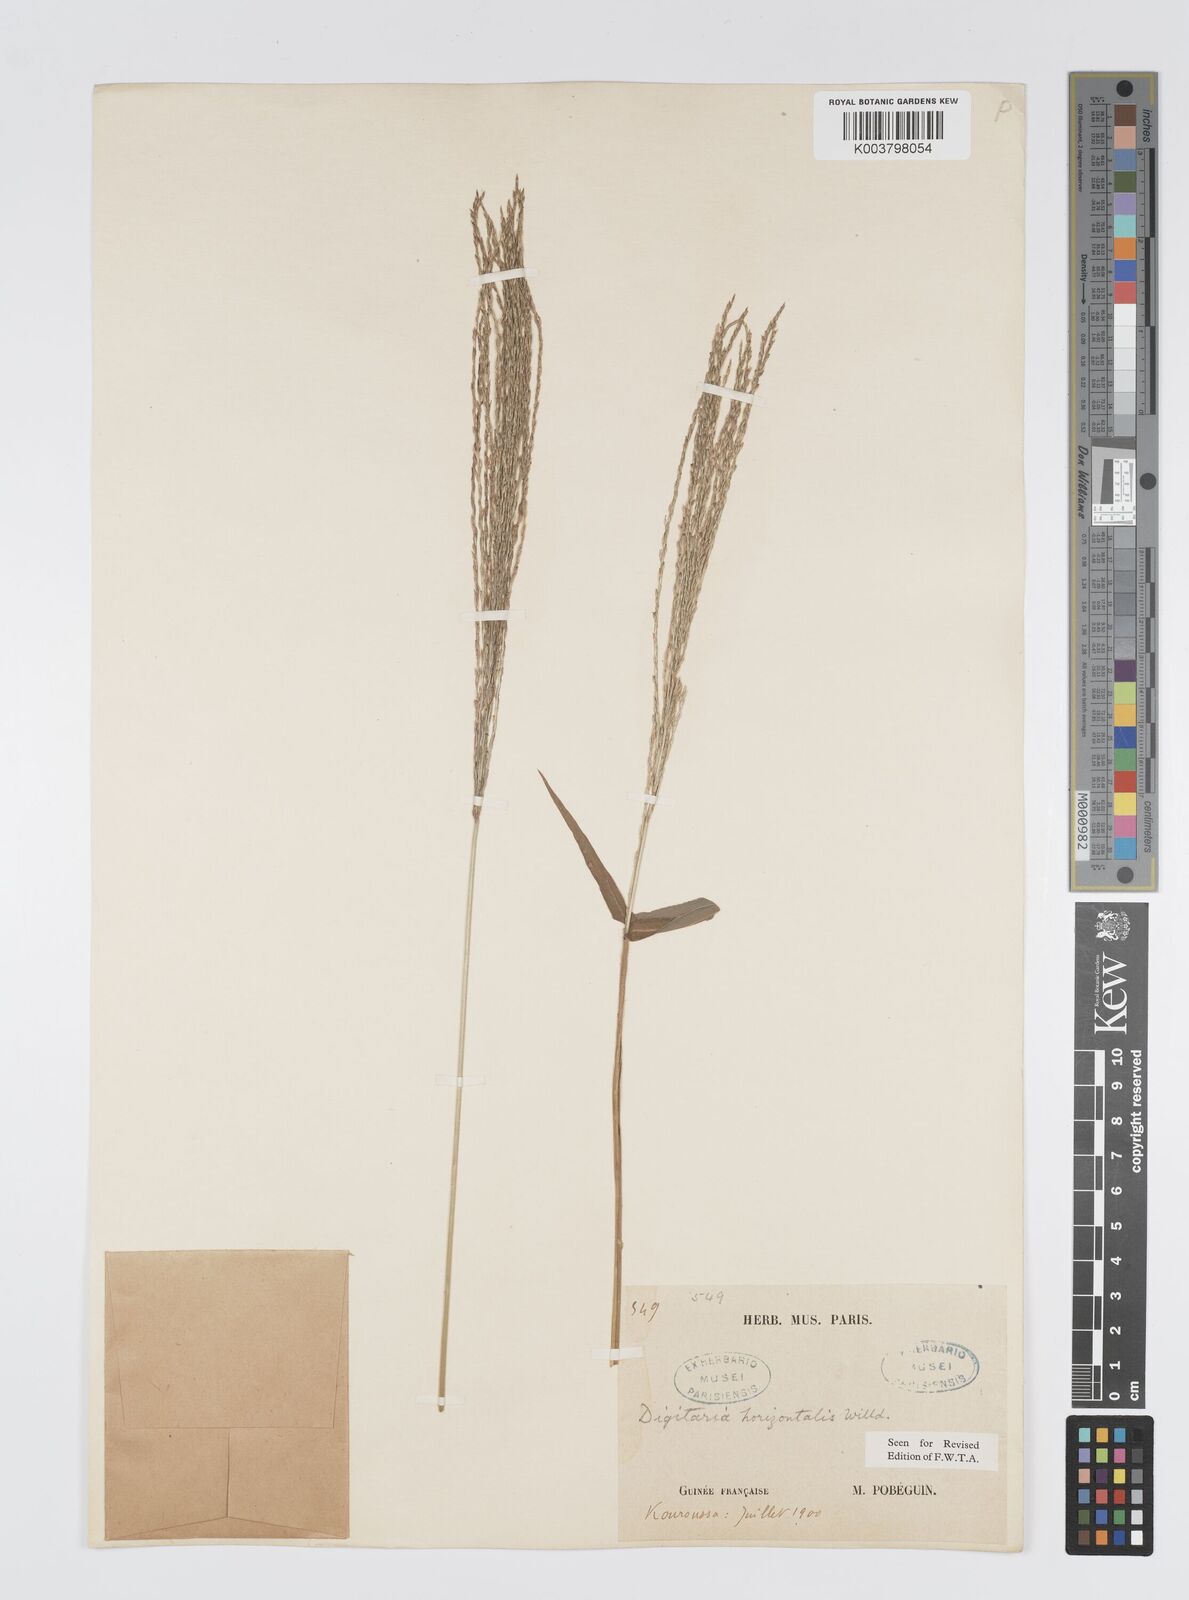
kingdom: Plantae
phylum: Tracheophyta
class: Liliopsida
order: Poales
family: Poaceae
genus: Digitaria
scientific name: Digitaria horizontalis
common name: Jamaican crabgrass
